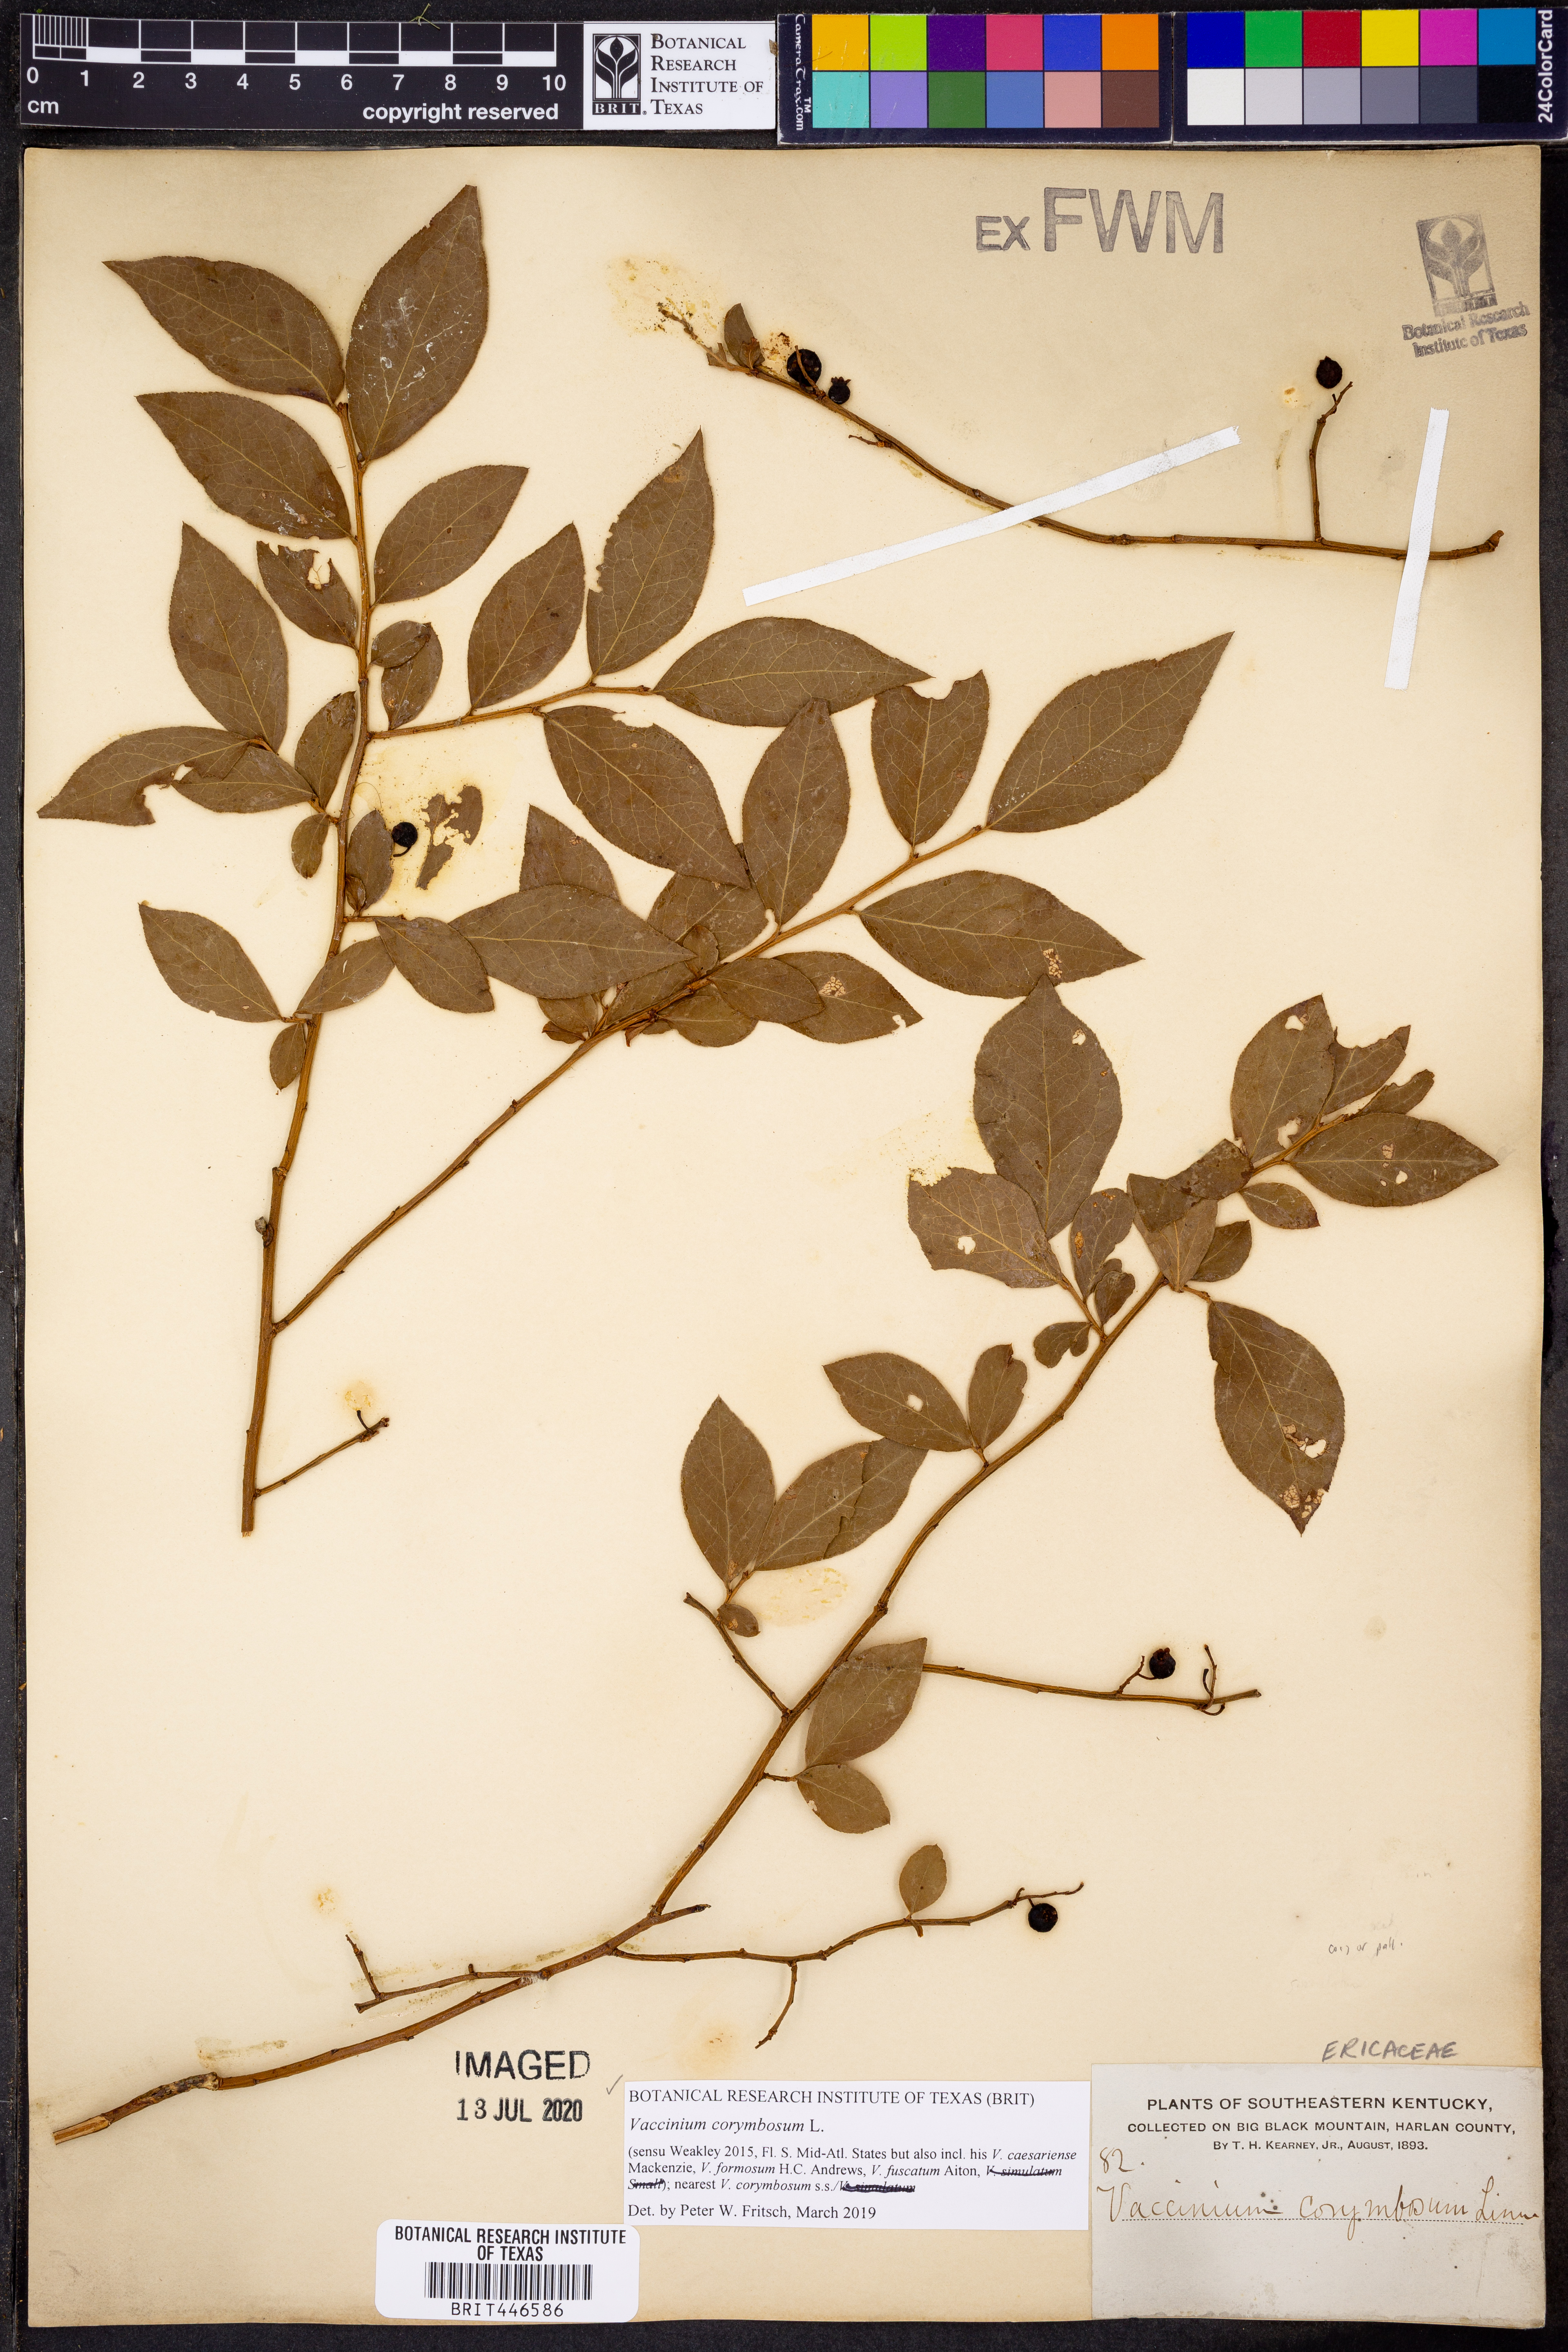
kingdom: Plantae
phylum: Tracheophyta
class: Magnoliopsida
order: Ericales
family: Ericaceae
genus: Vaccinium
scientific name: Vaccinium corymbosum
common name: Blueberry
